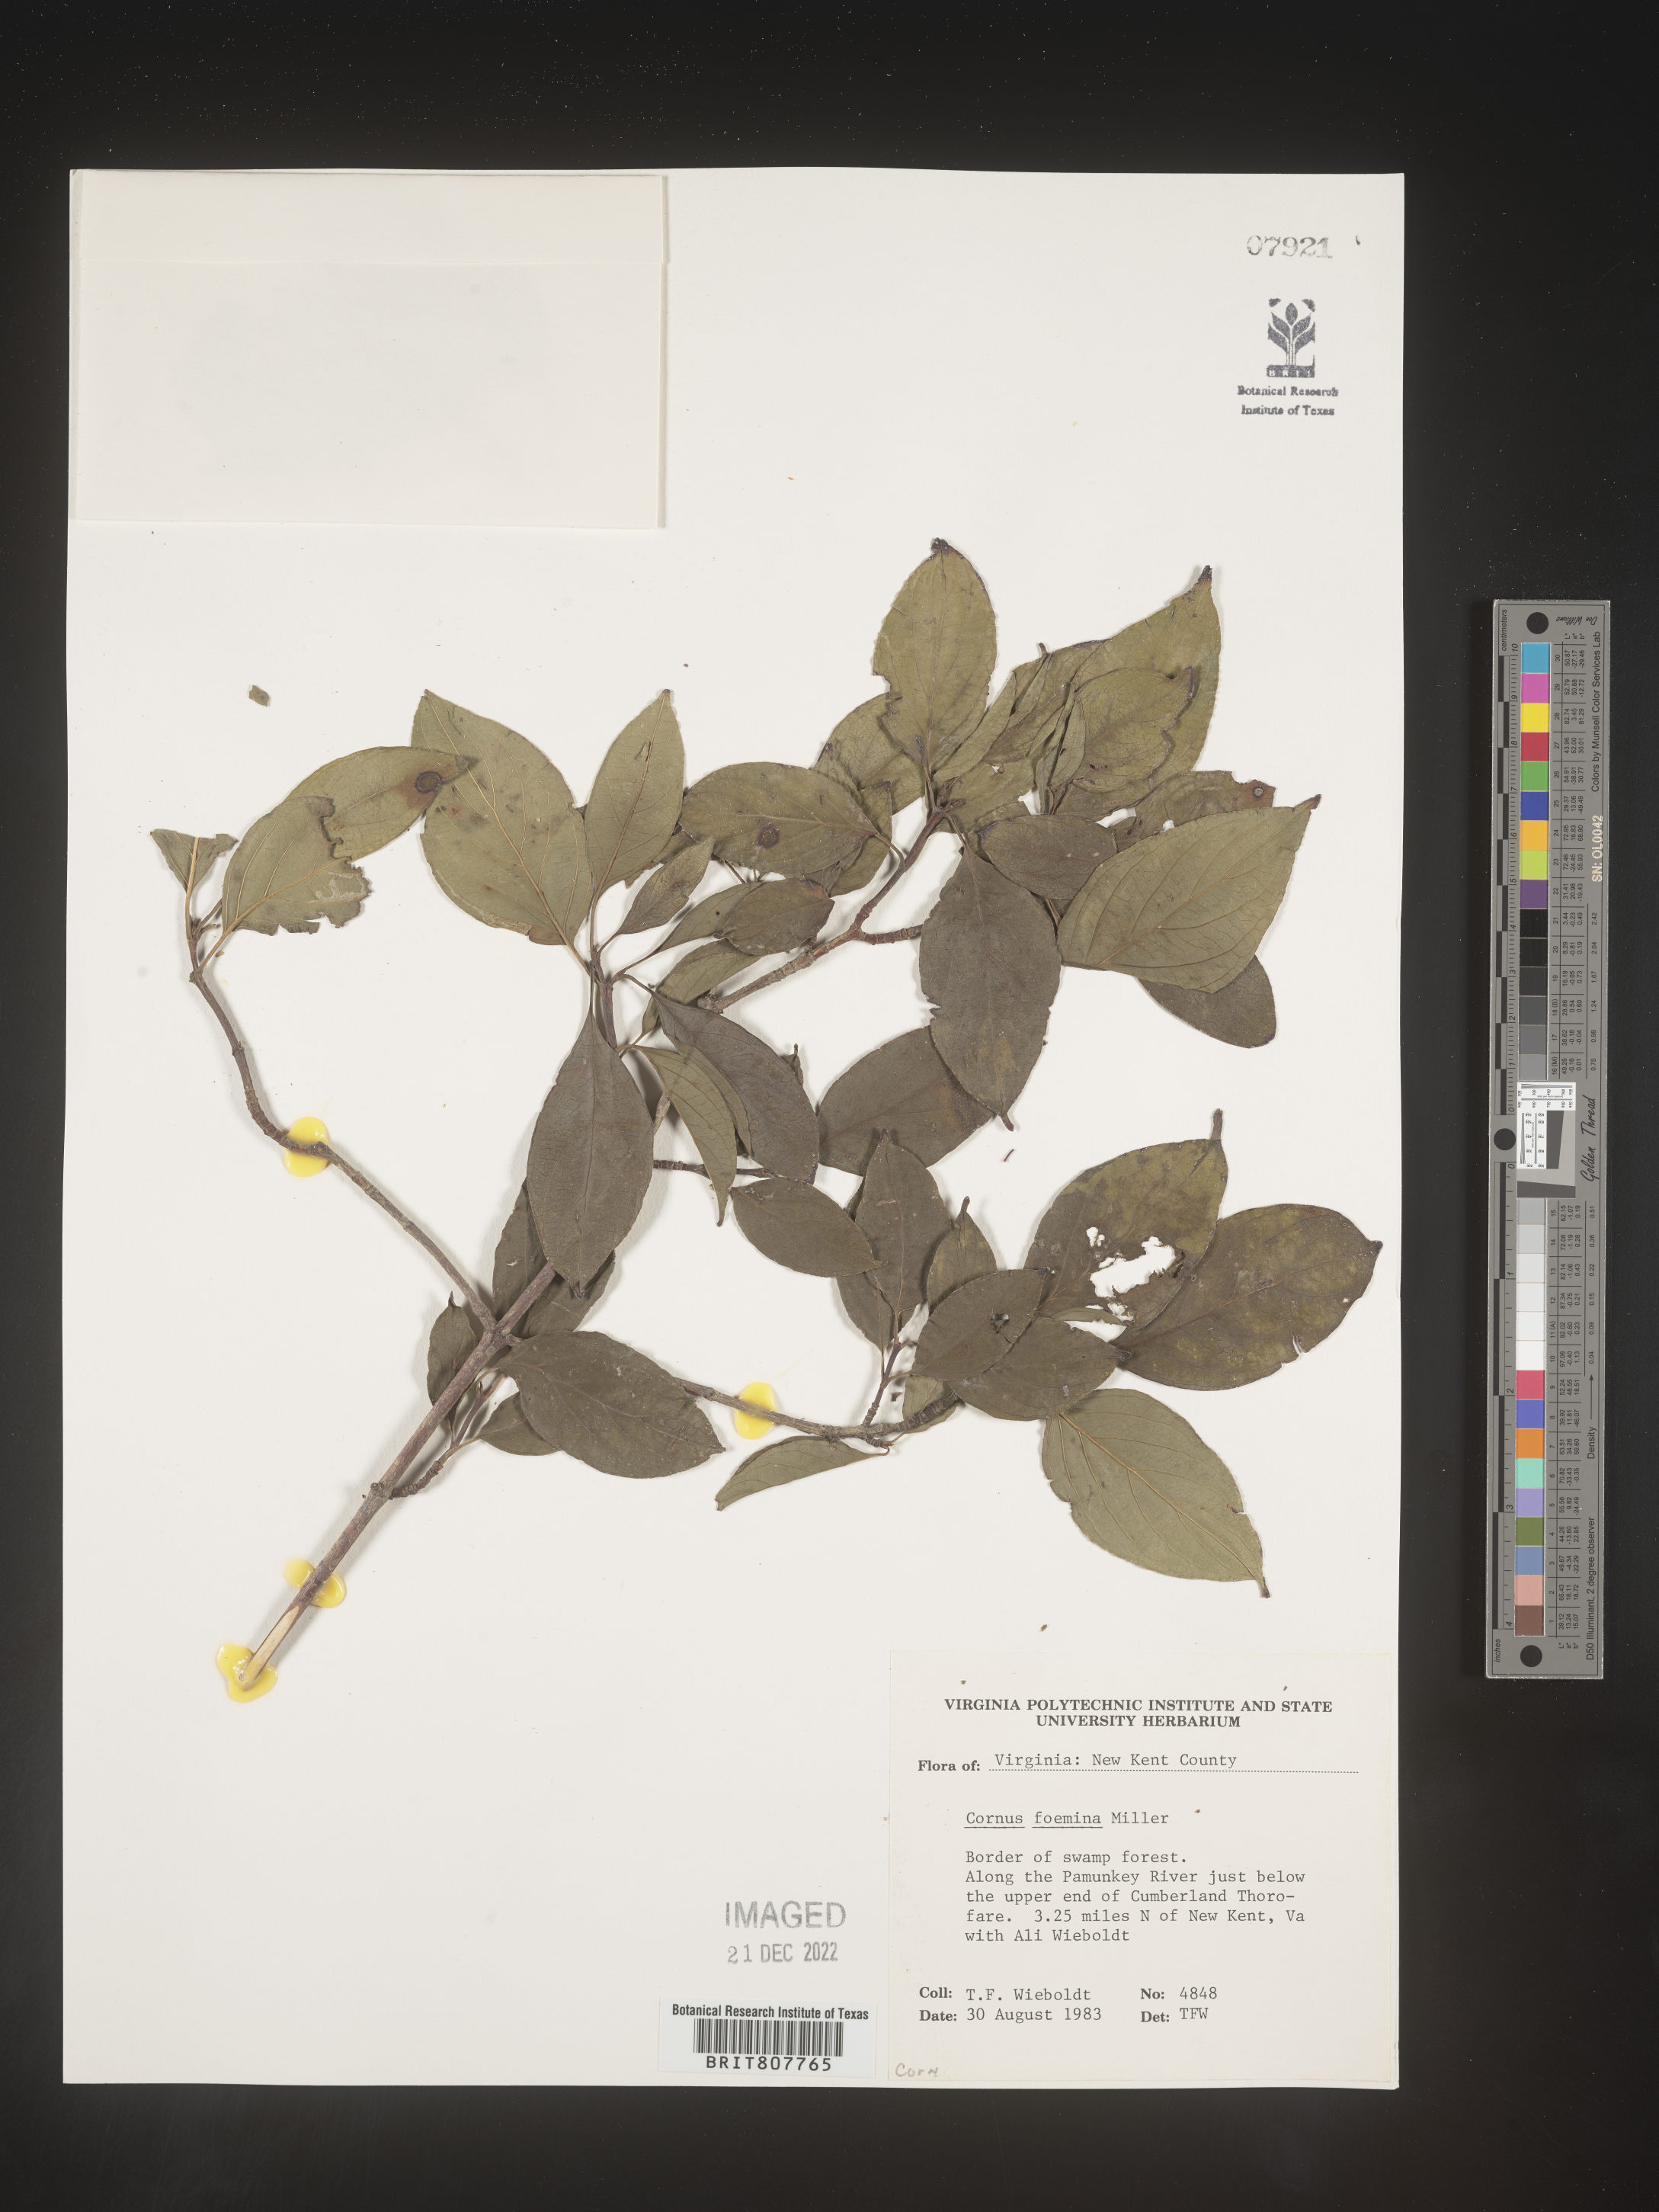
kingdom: Plantae
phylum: Tracheophyta
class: Magnoliopsida
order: Cornales
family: Cornaceae
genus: Cornus
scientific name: Cornus foemina
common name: Swamp dogwood
